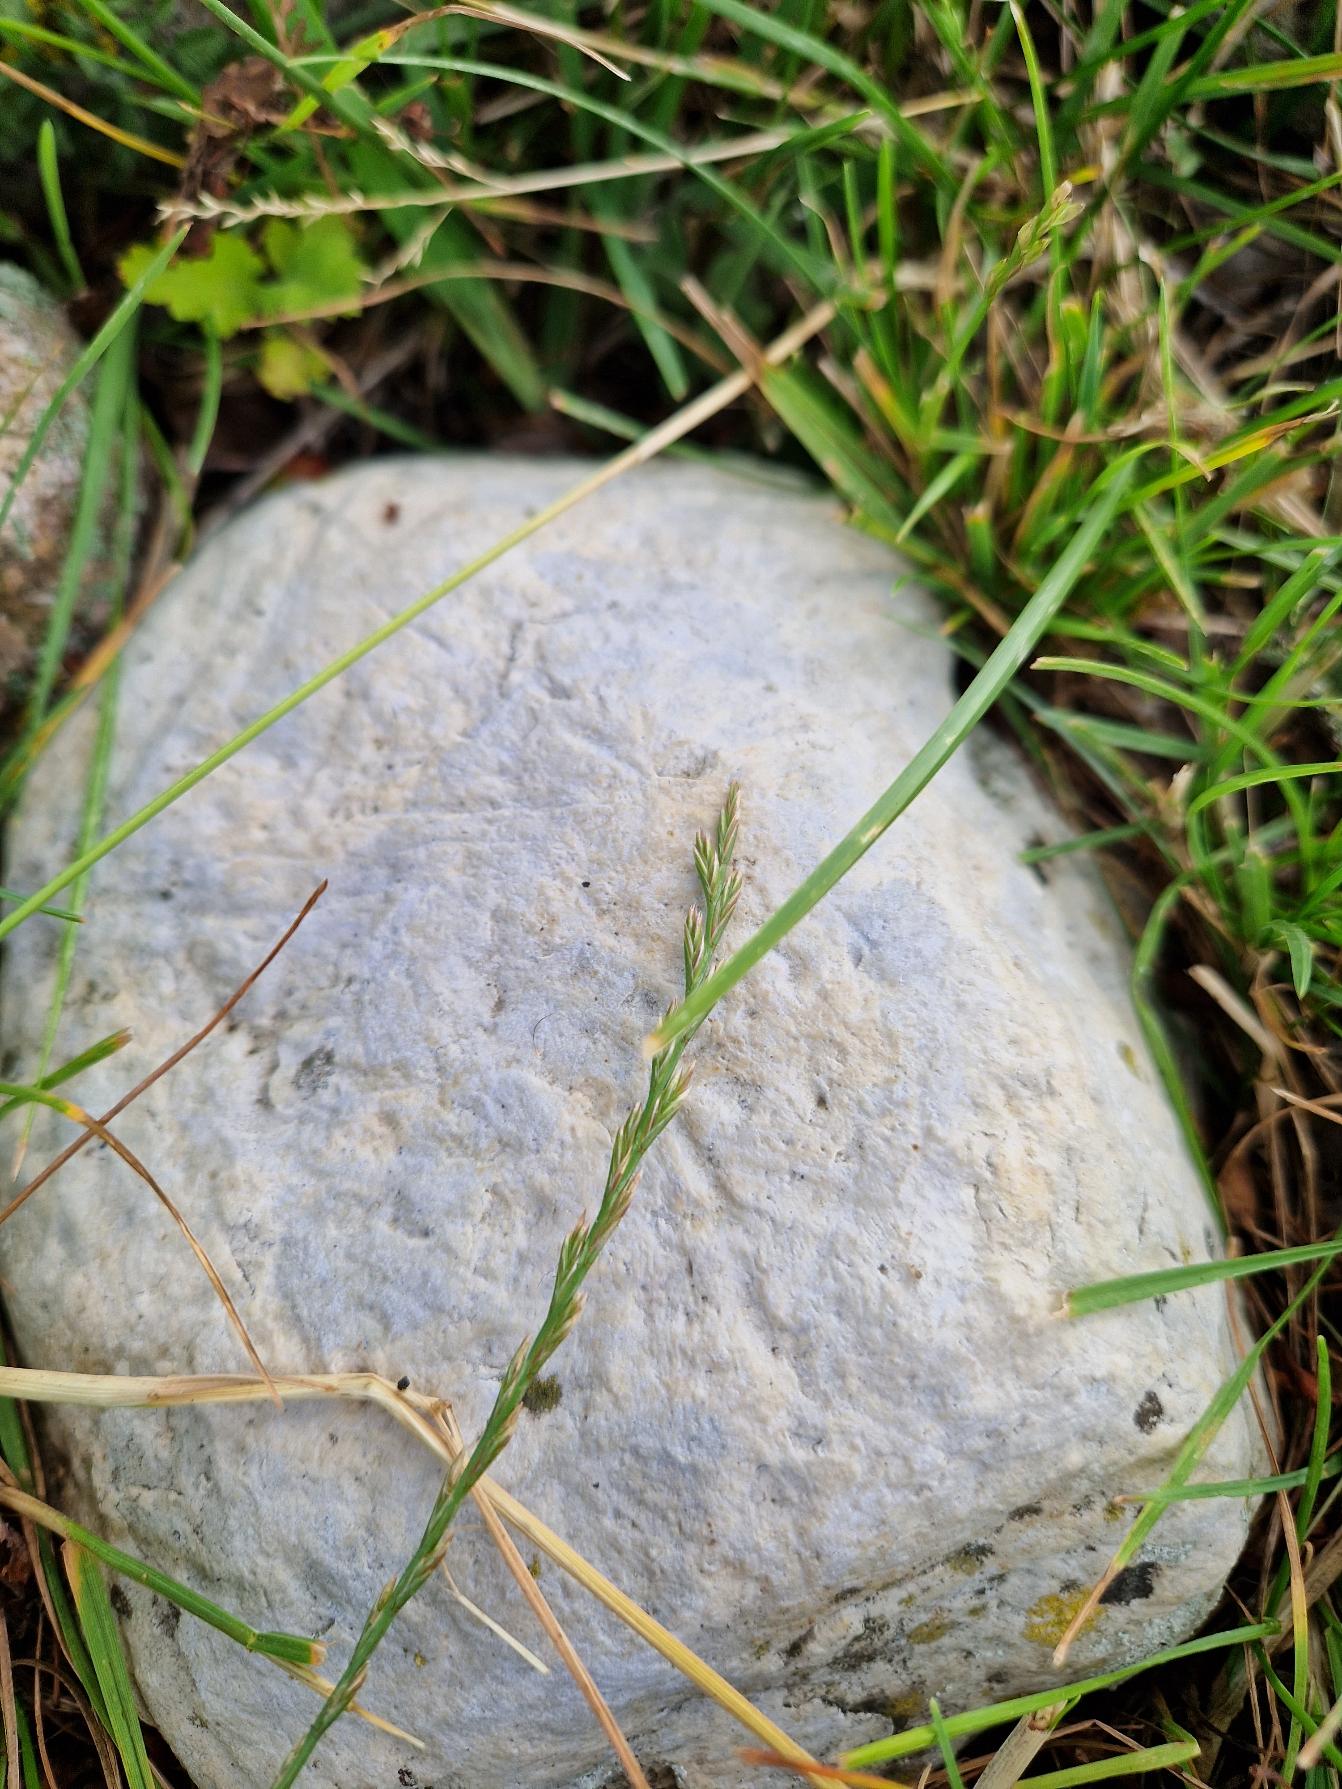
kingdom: Plantae
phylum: Tracheophyta
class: Liliopsida
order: Poales
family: Poaceae
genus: Lolium
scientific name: Lolium perenne
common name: Almindelig rajgræs
